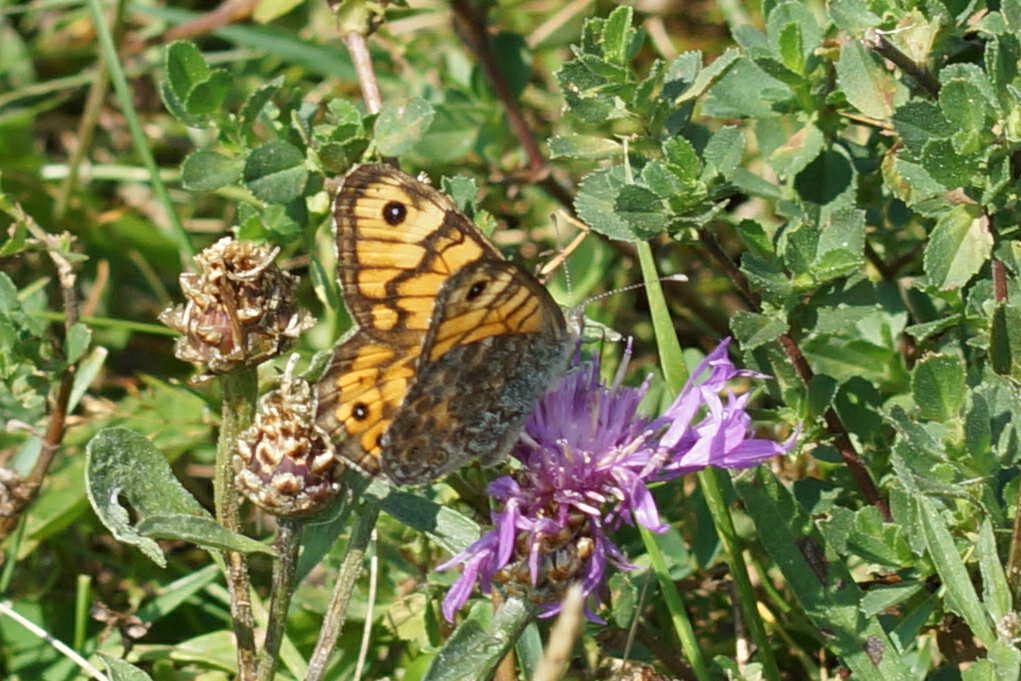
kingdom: Animalia
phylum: Arthropoda
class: Insecta
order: Lepidoptera
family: Nymphalidae
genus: Pararge
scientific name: Pararge Lasiommata megera
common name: Vejrandøje
